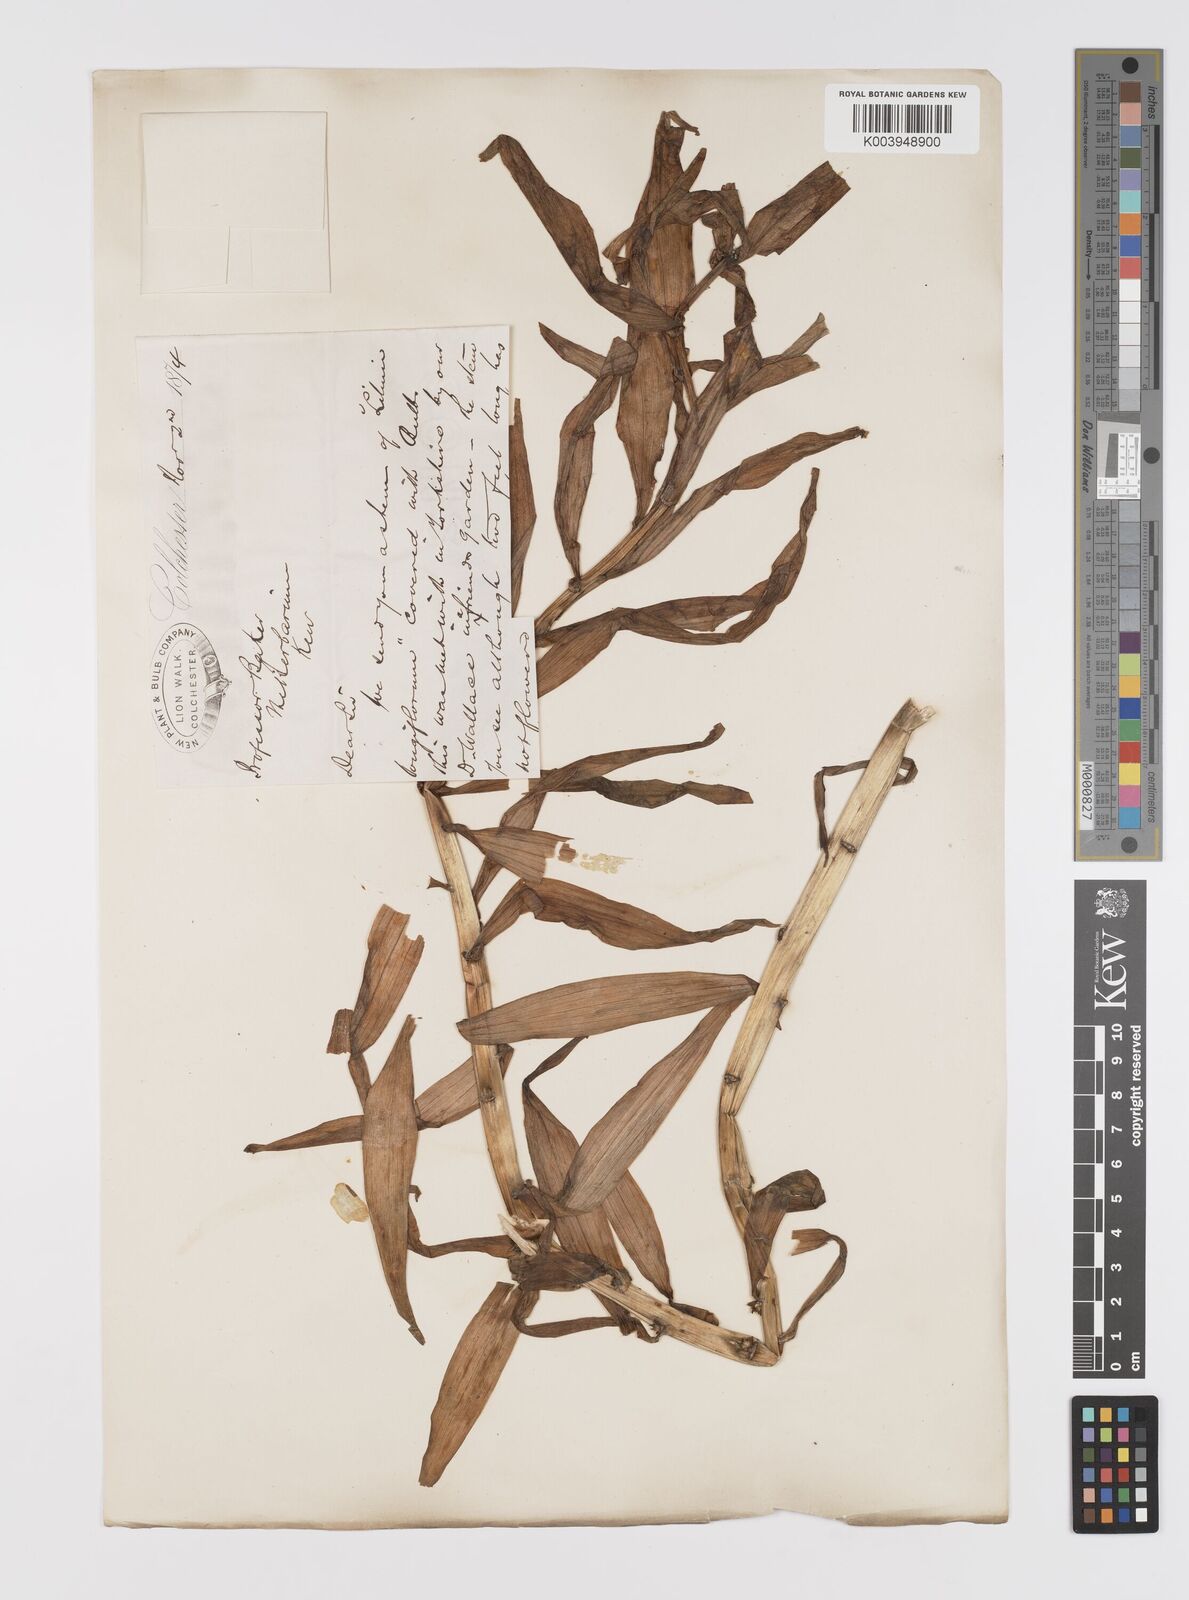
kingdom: Plantae
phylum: Tracheophyta
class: Liliopsida
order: Liliales
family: Liliaceae
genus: Lilium
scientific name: Lilium longiflorum
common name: Easter lily
